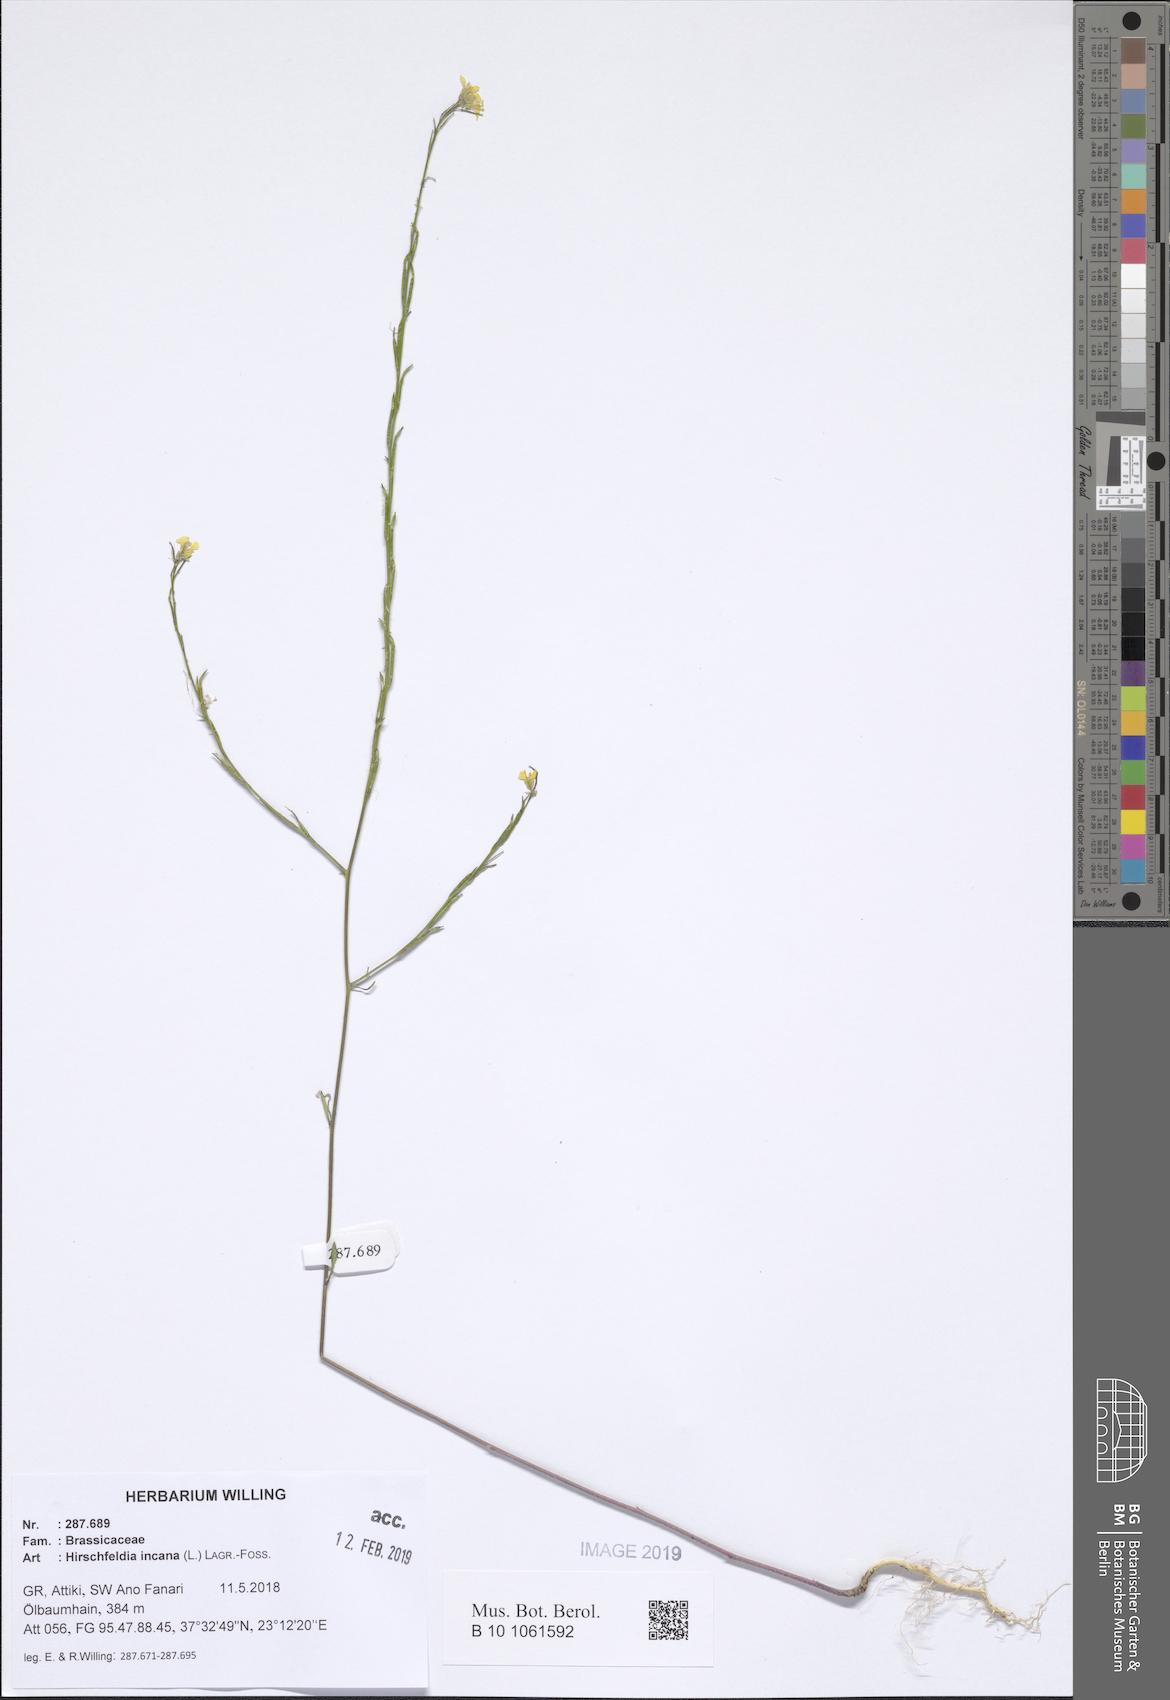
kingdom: Plantae
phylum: Tracheophyta
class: Magnoliopsida
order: Brassicales
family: Brassicaceae
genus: Hirschfeldia
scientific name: Hirschfeldia incana
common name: Hoary mustard
